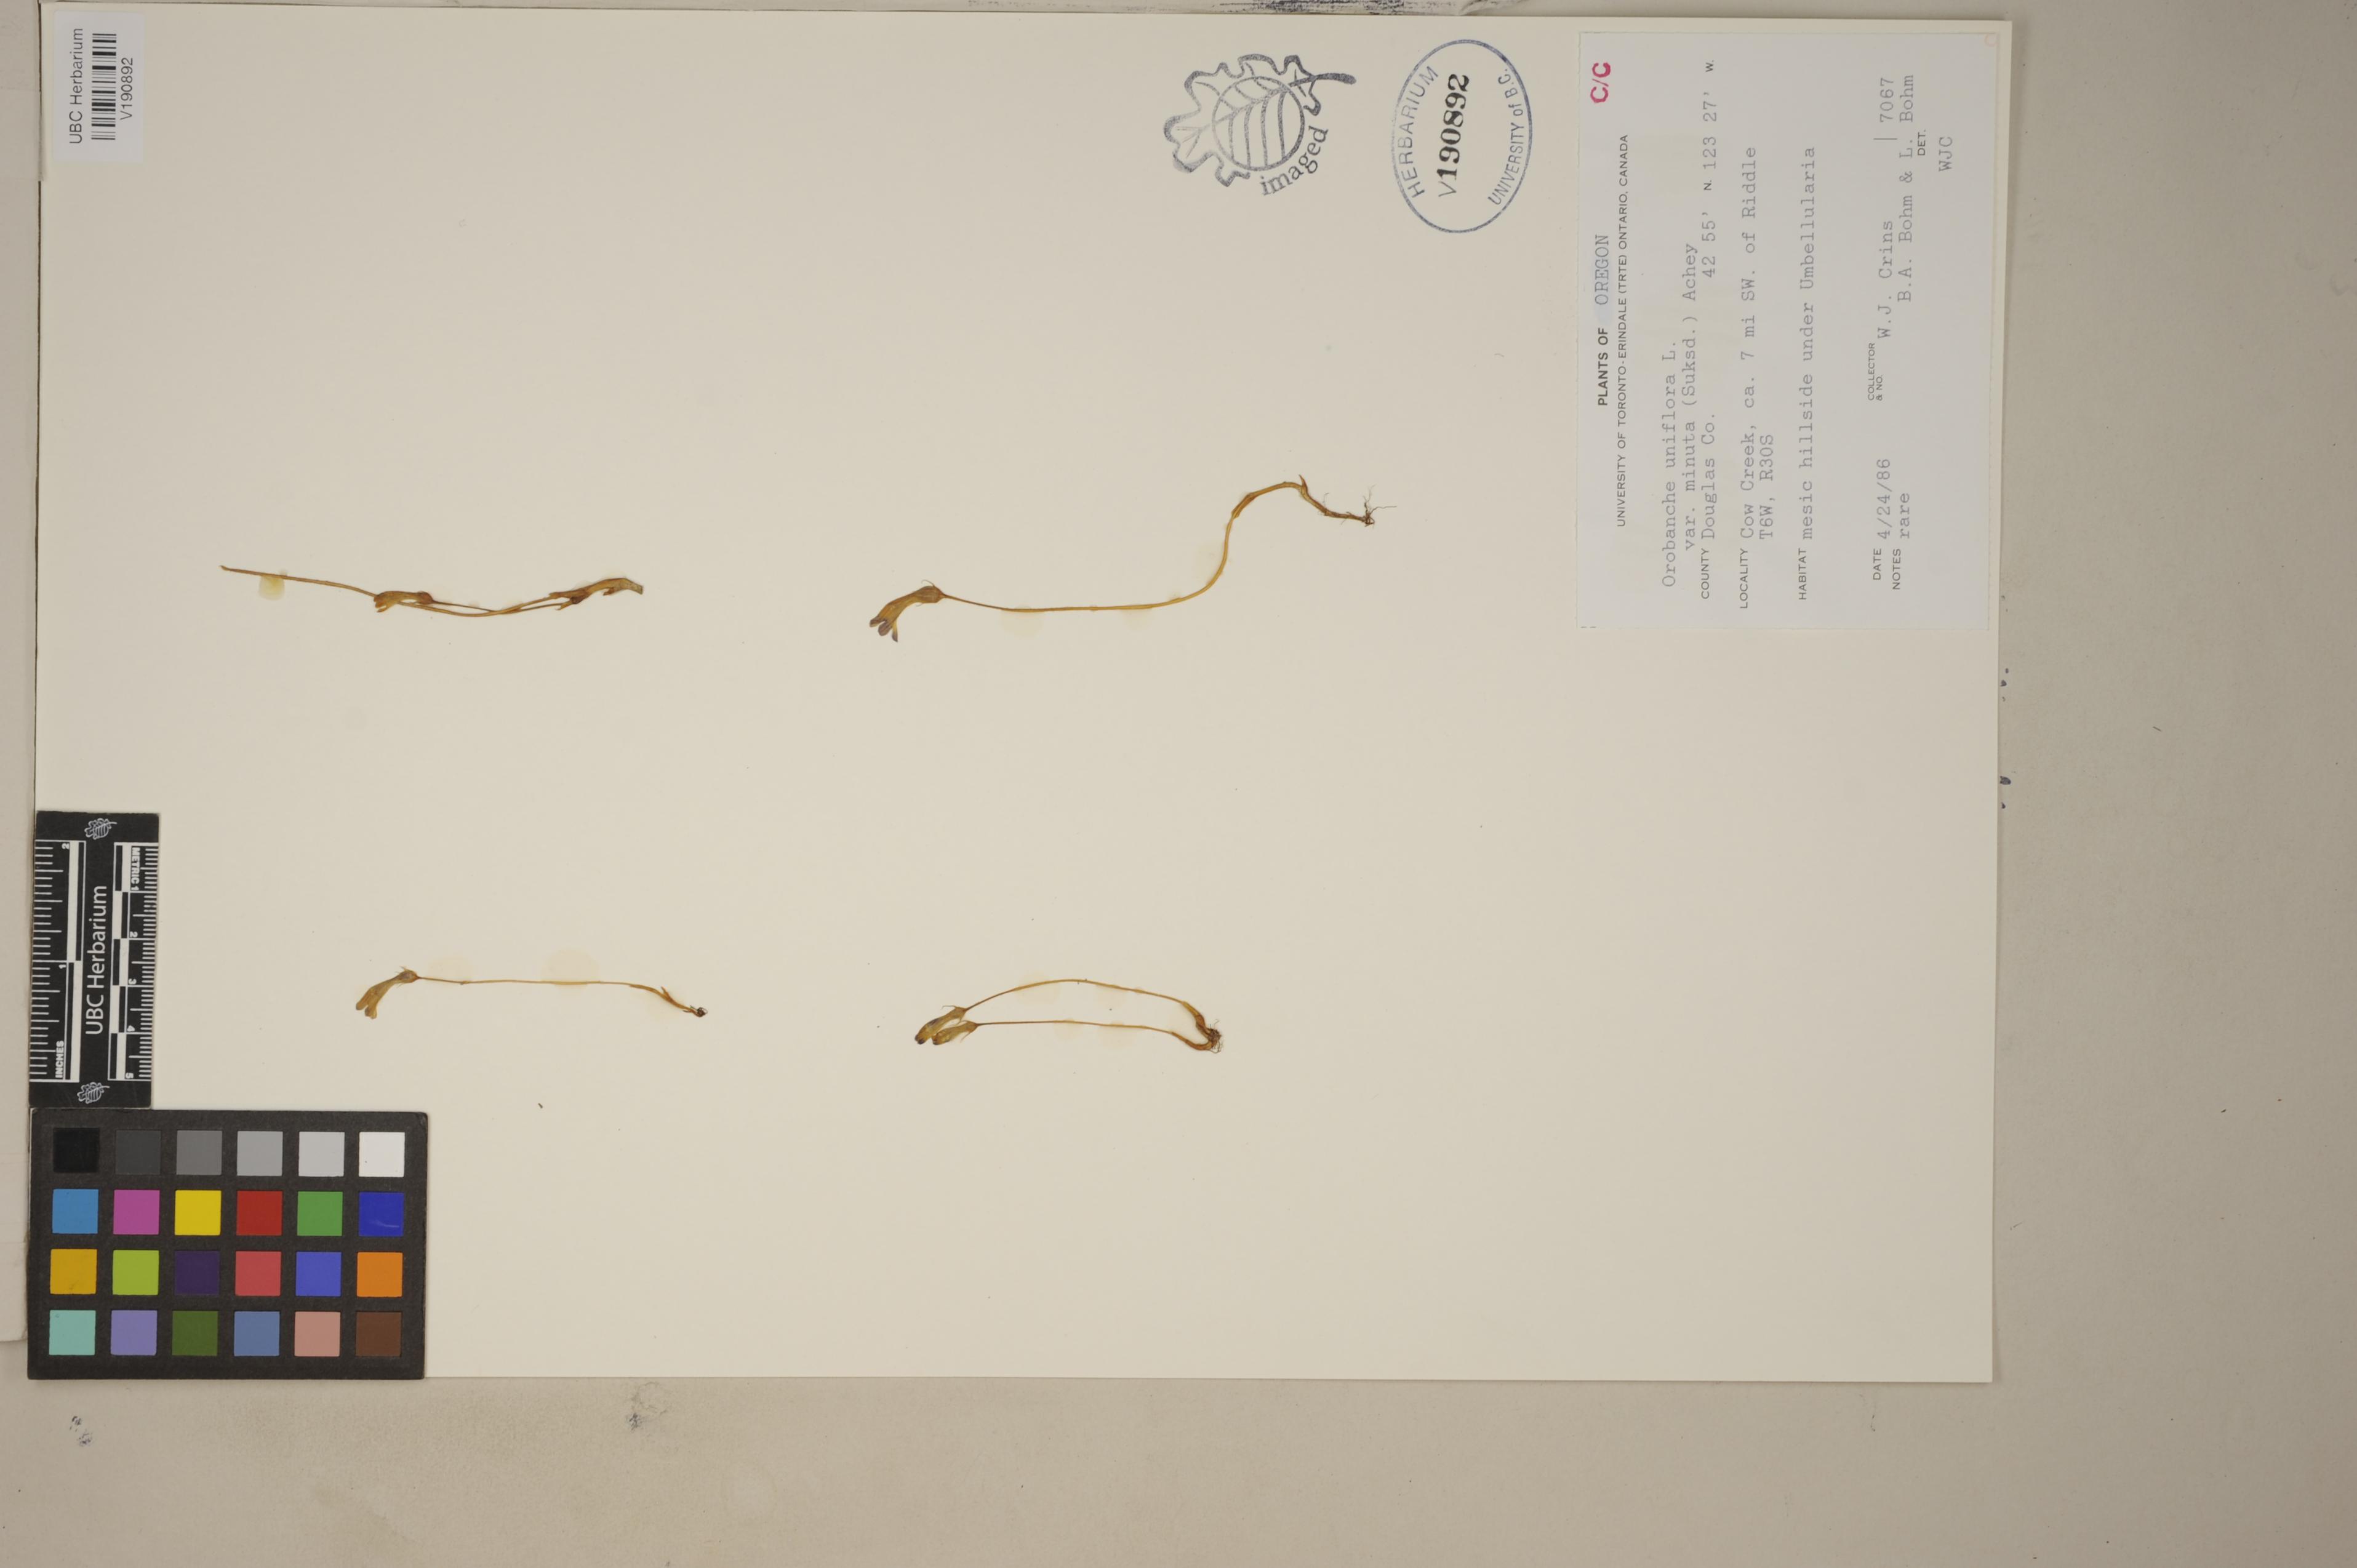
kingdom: Plantae
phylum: Tracheophyta
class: Magnoliopsida
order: Lamiales
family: Orobanchaceae
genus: Aphyllon
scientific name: Aphyllon uniflorum
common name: One-flowered broomrape
